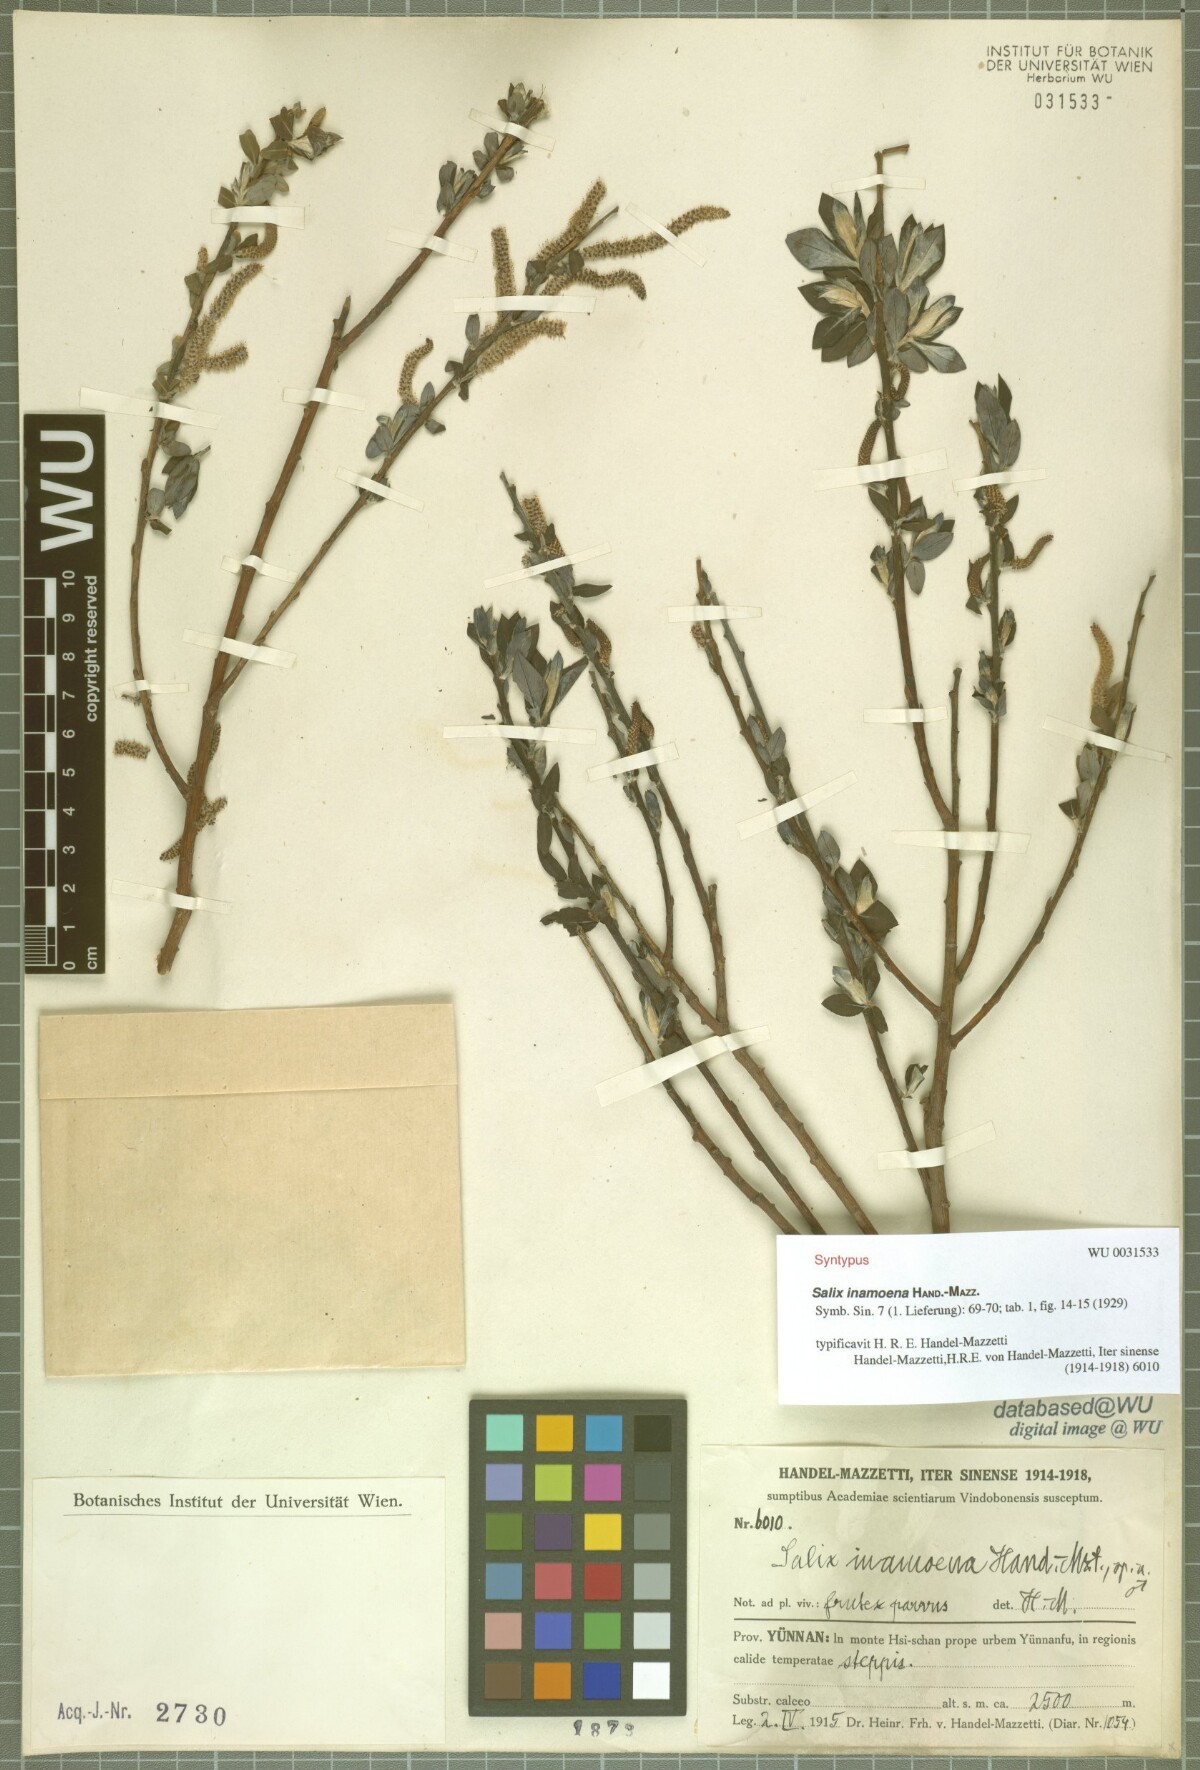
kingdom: Plantae
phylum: Tracheophyta
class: Magnoliopsida
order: Malpighiales
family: Salicaceae
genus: Salix
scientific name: Salix inamoena
